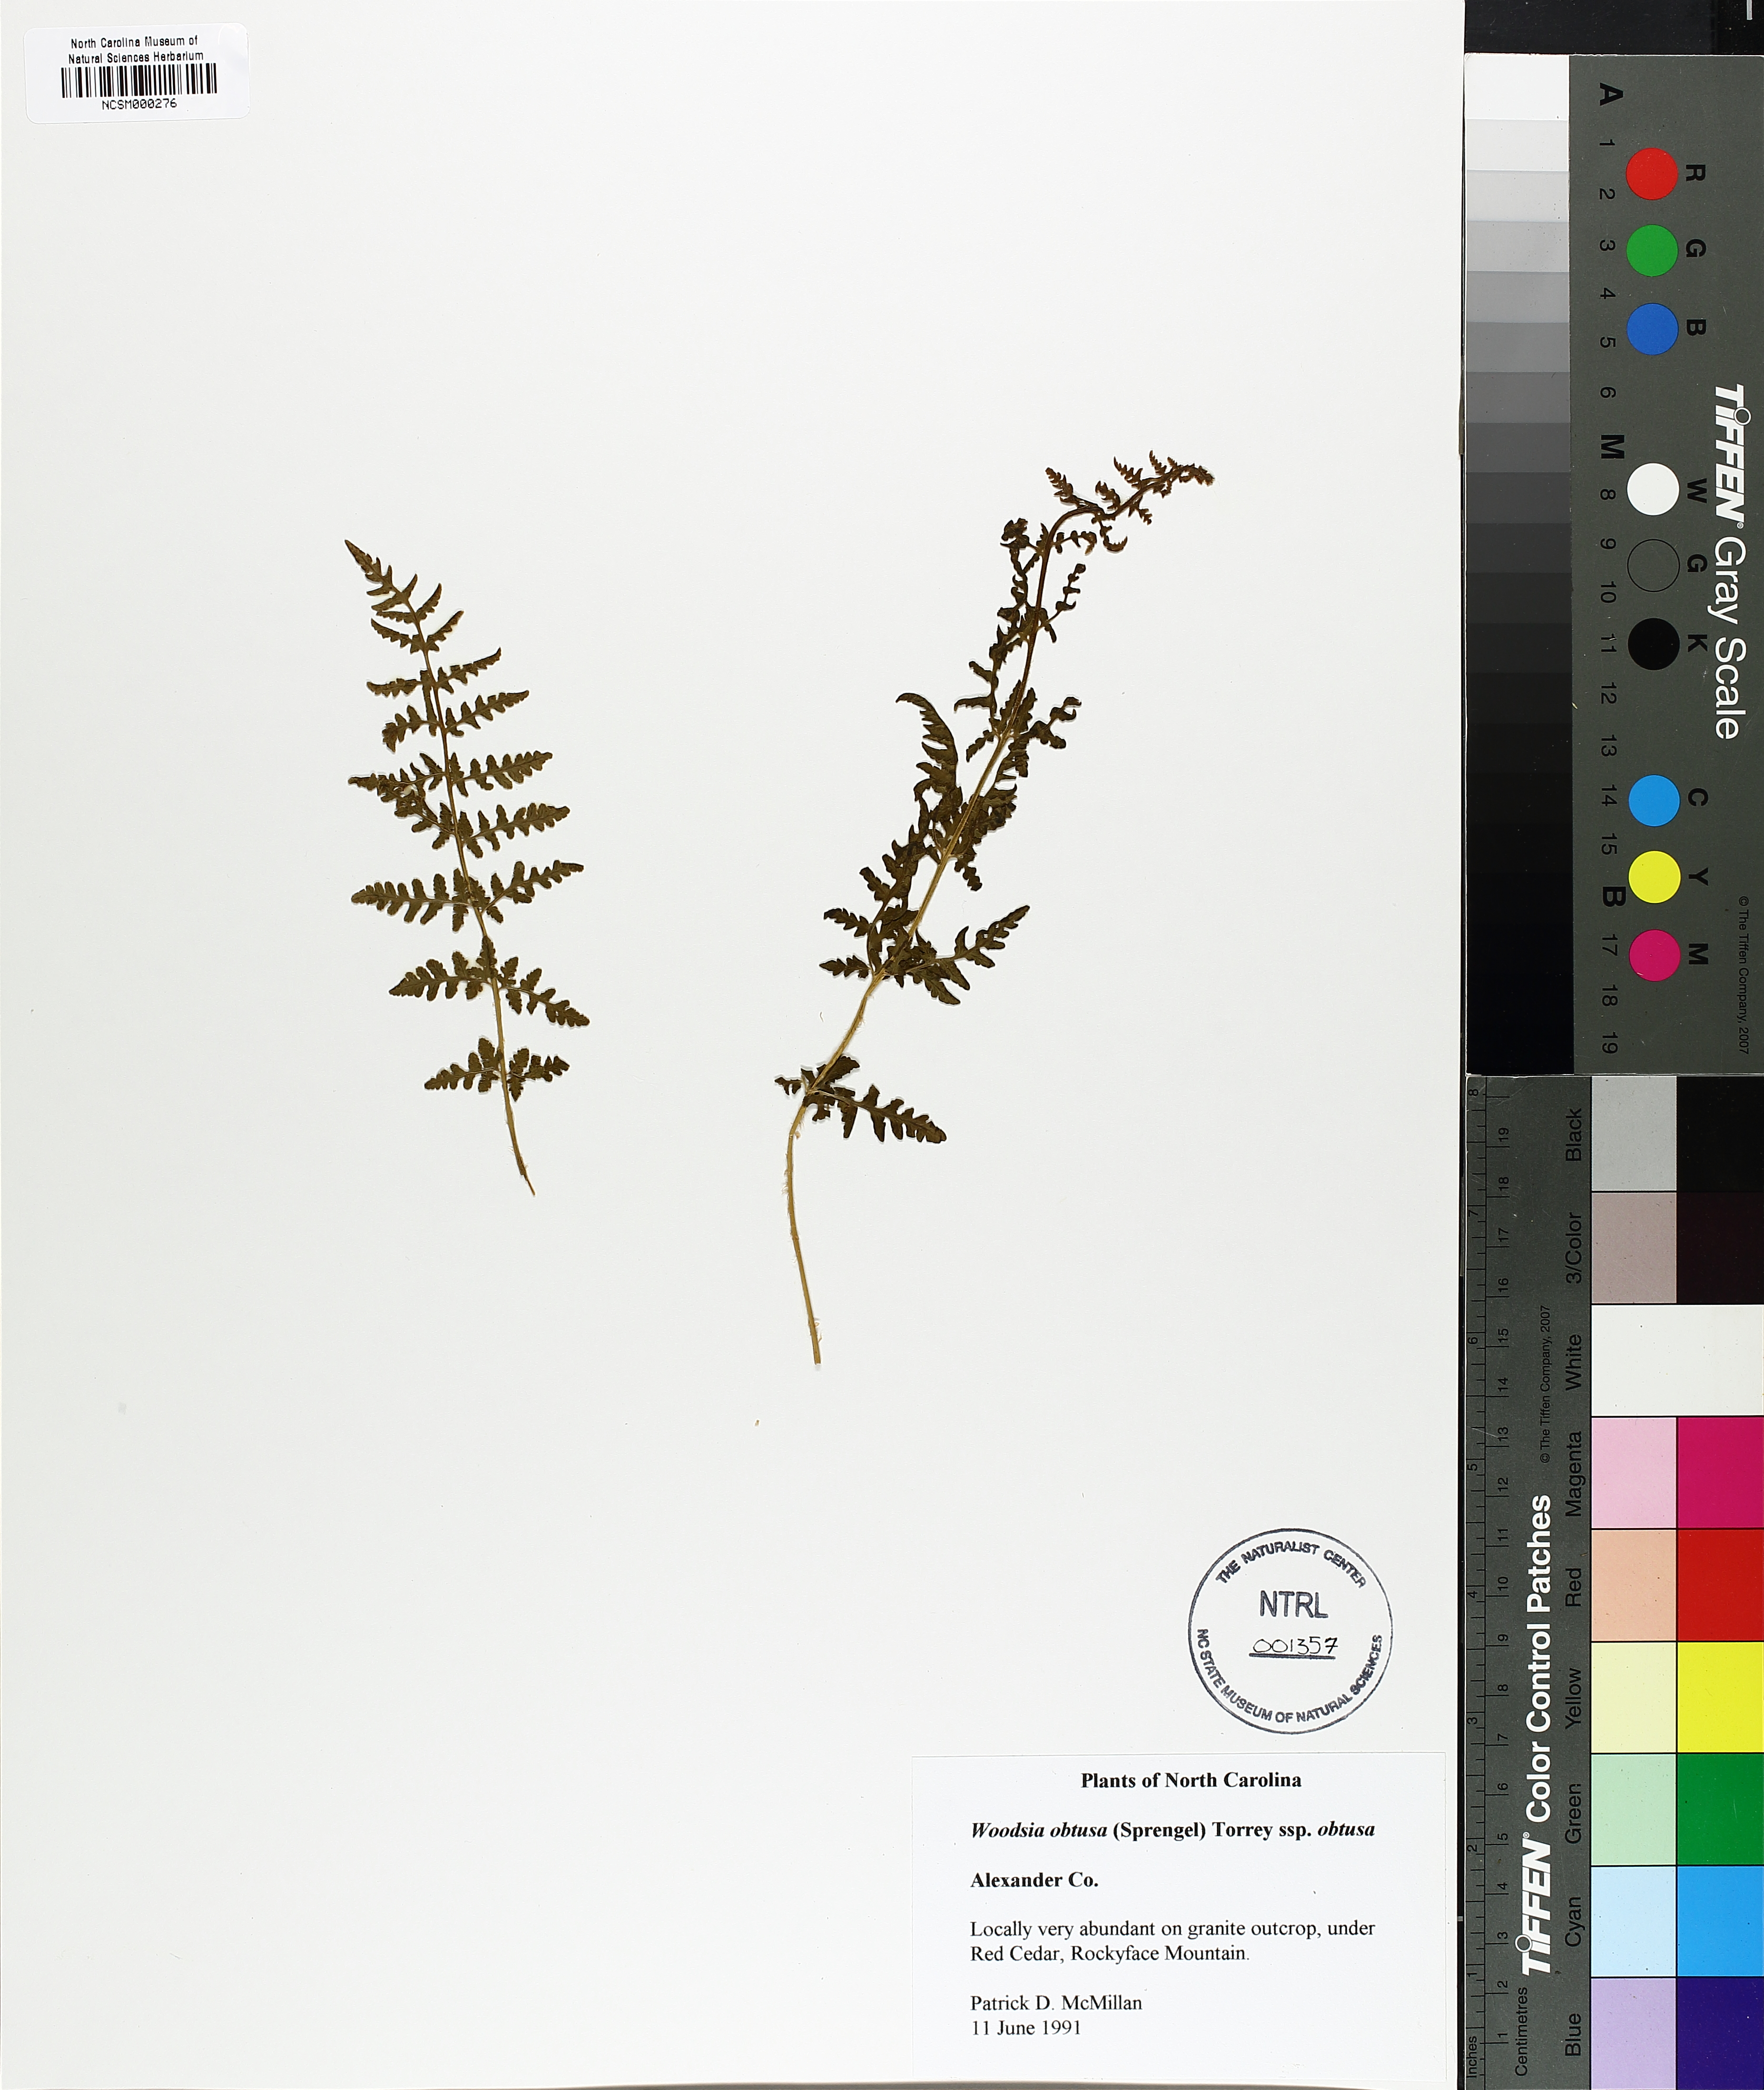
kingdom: Plantae
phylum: Tracheophyta
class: Polypodiopsida
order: Polypodiales
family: Woodsiaceae
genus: Physematium
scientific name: Physematium obtusum
